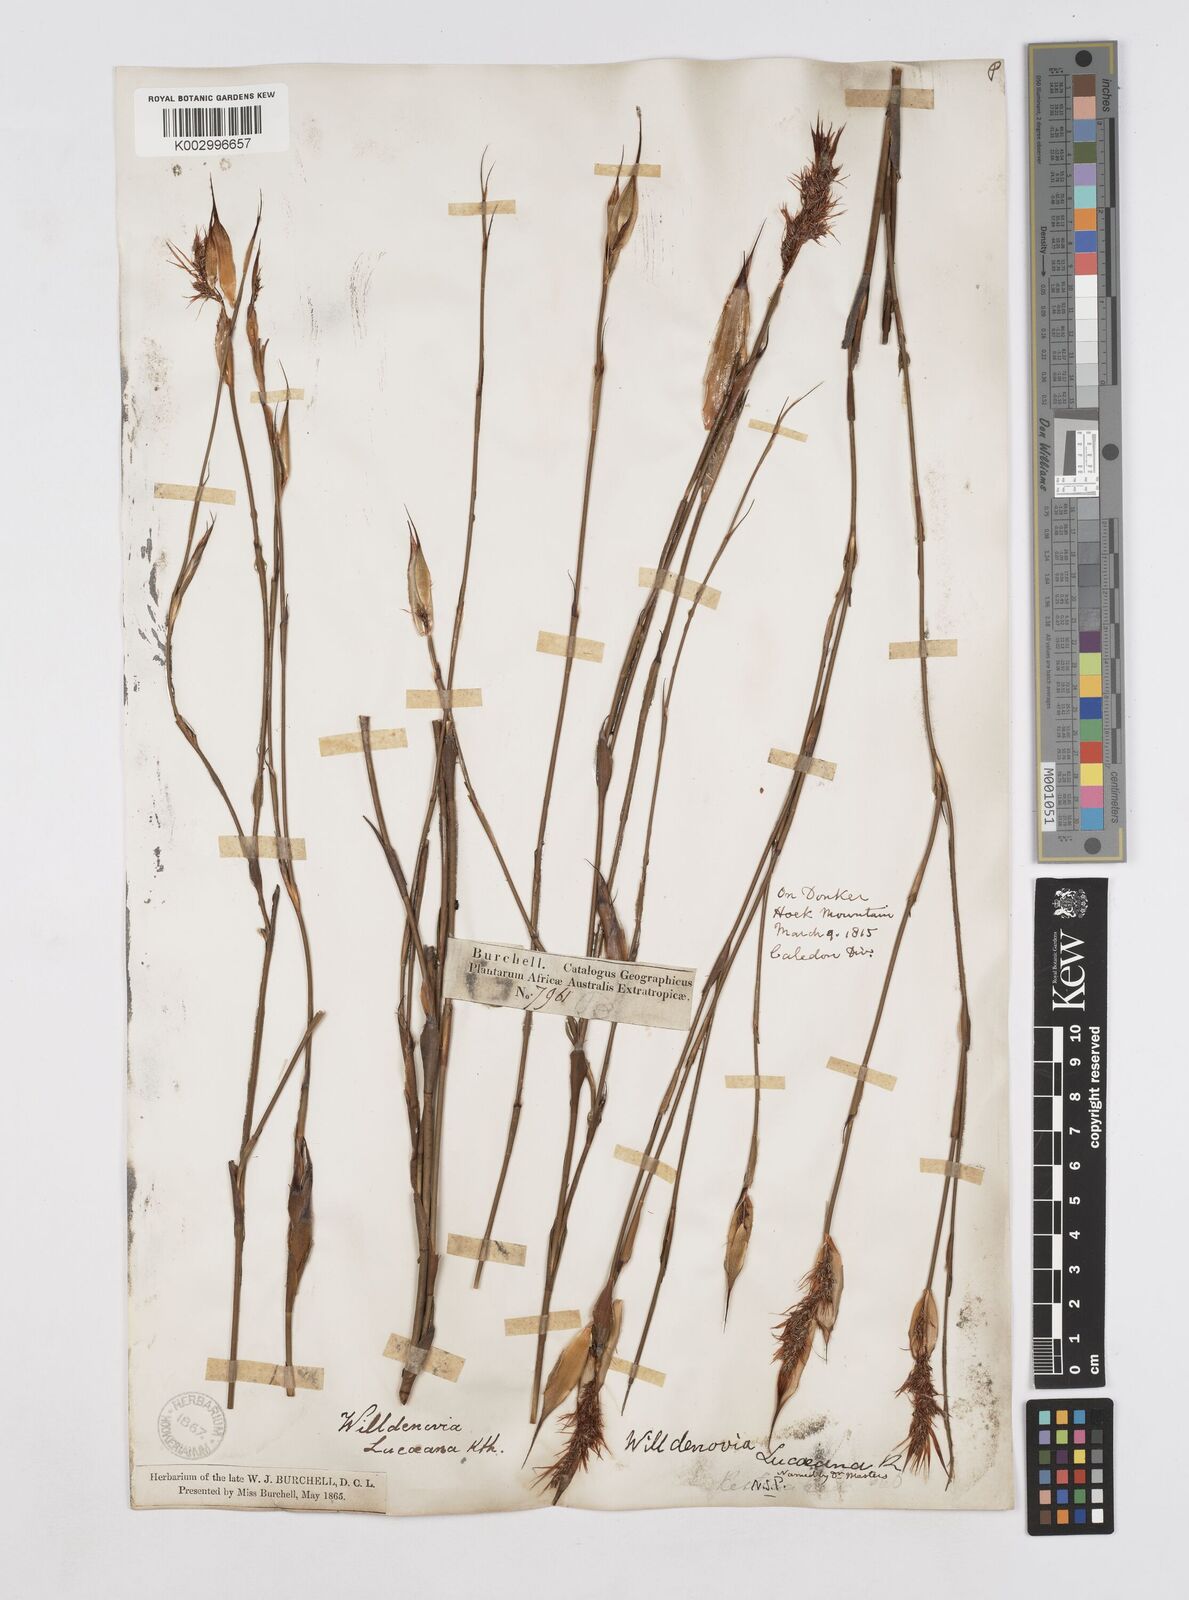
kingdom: Plantae
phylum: Tracheophyta
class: Liliopsida
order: Poales
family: Restionaceae
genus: Willdenowia
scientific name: Willdenowia glomerata
